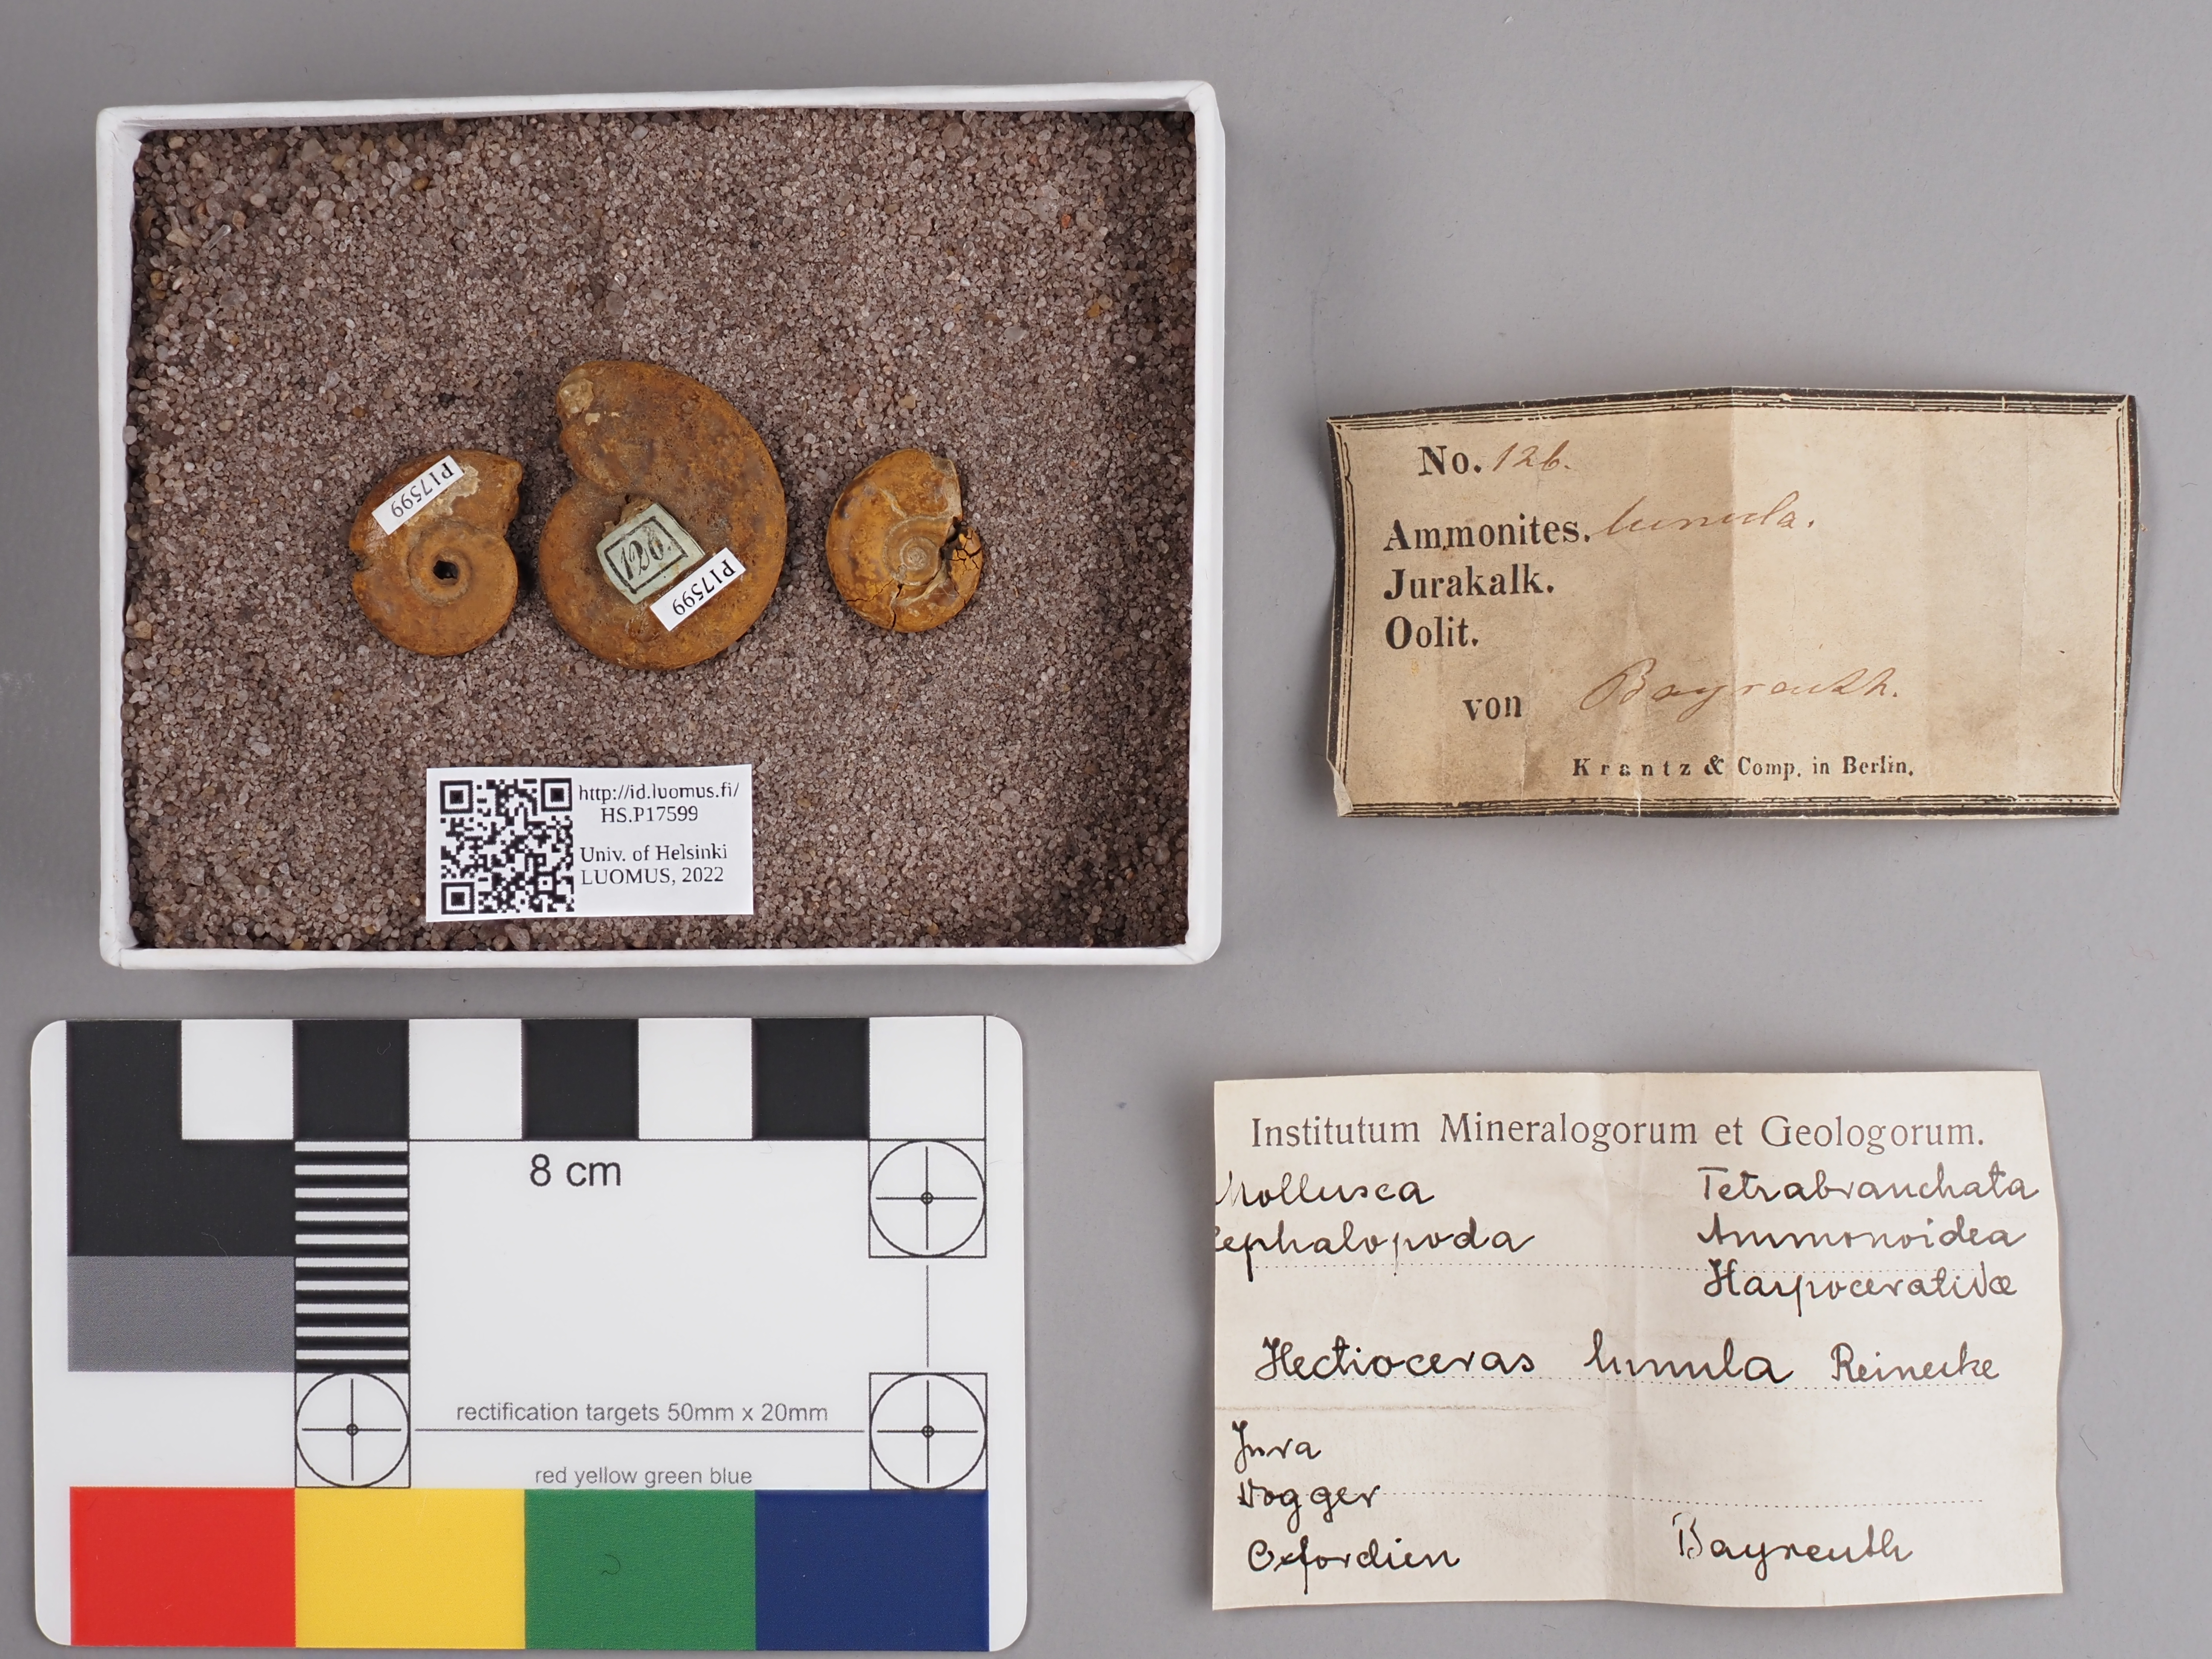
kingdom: Animalia
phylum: Mollusca
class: Cephalopoda
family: Oppeliidae
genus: Hecticoceras
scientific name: Hecticoceras
